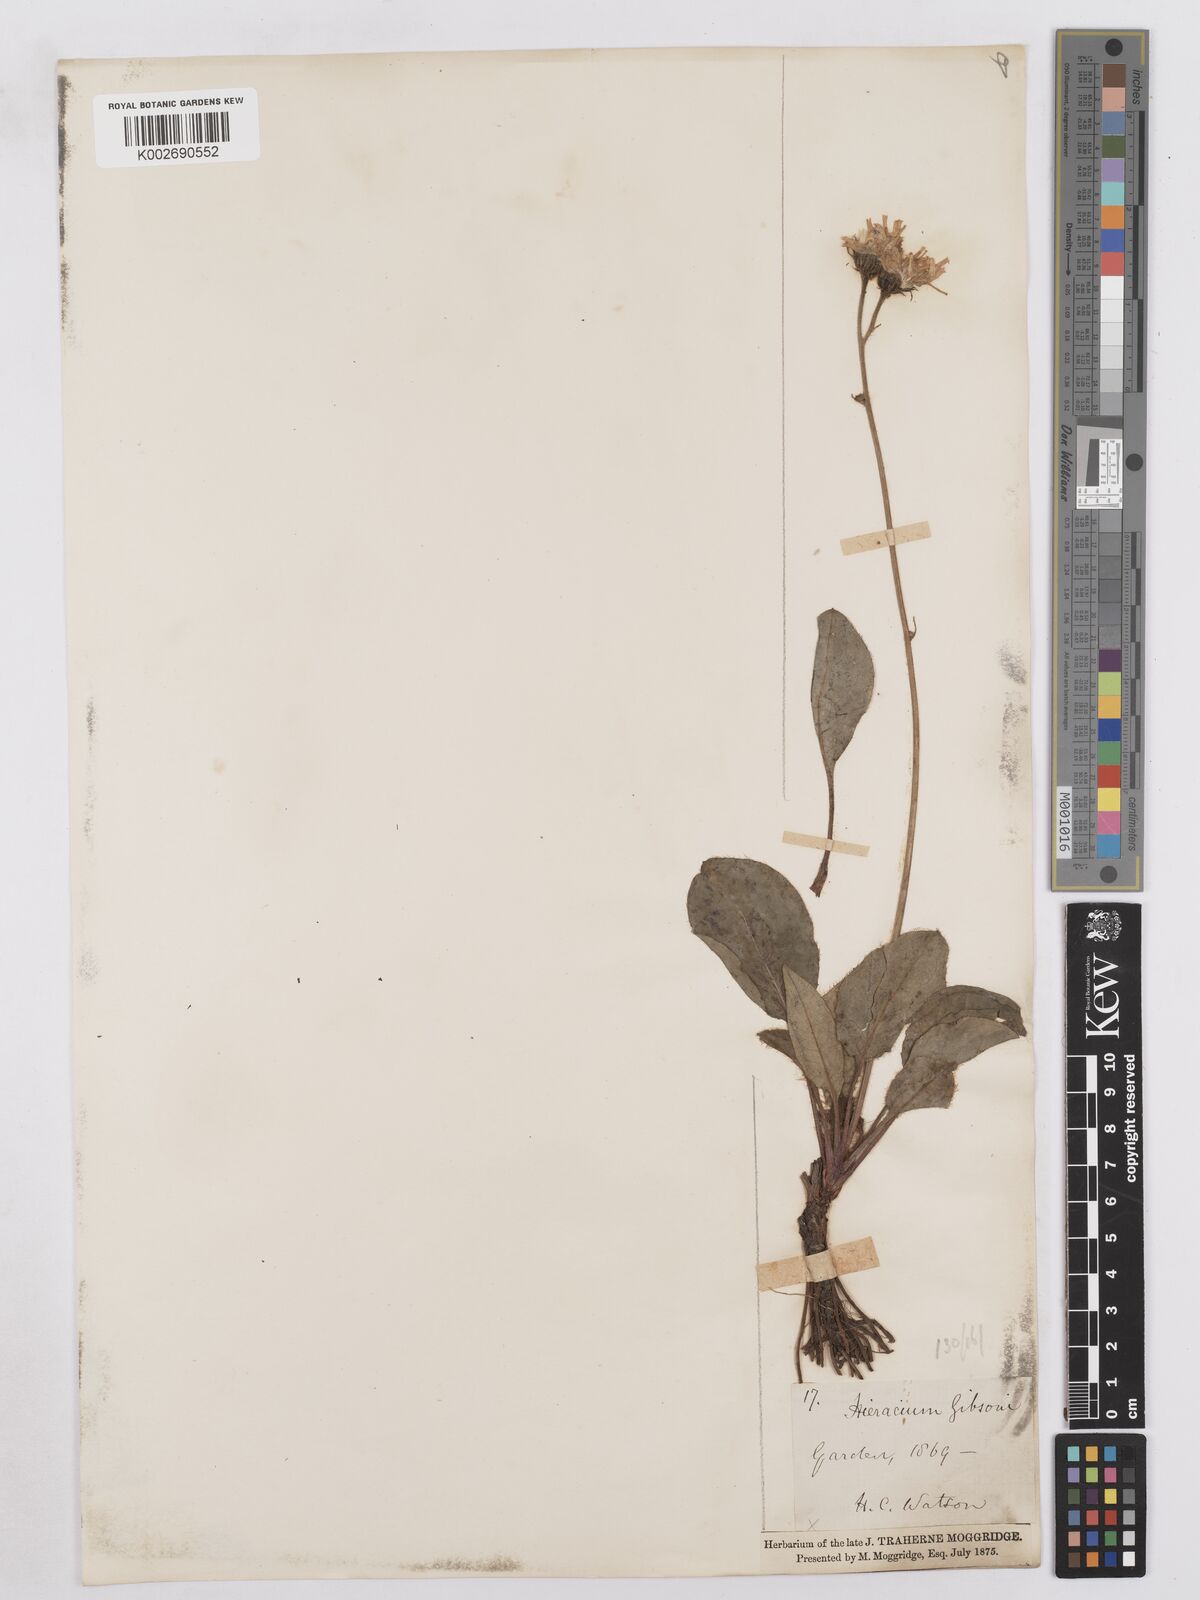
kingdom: Plantae
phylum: Tracheophyta
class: Magnoliopsida
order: Asterales
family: Asteraceae
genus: Hieracium
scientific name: Hieracium hypochoeroides
